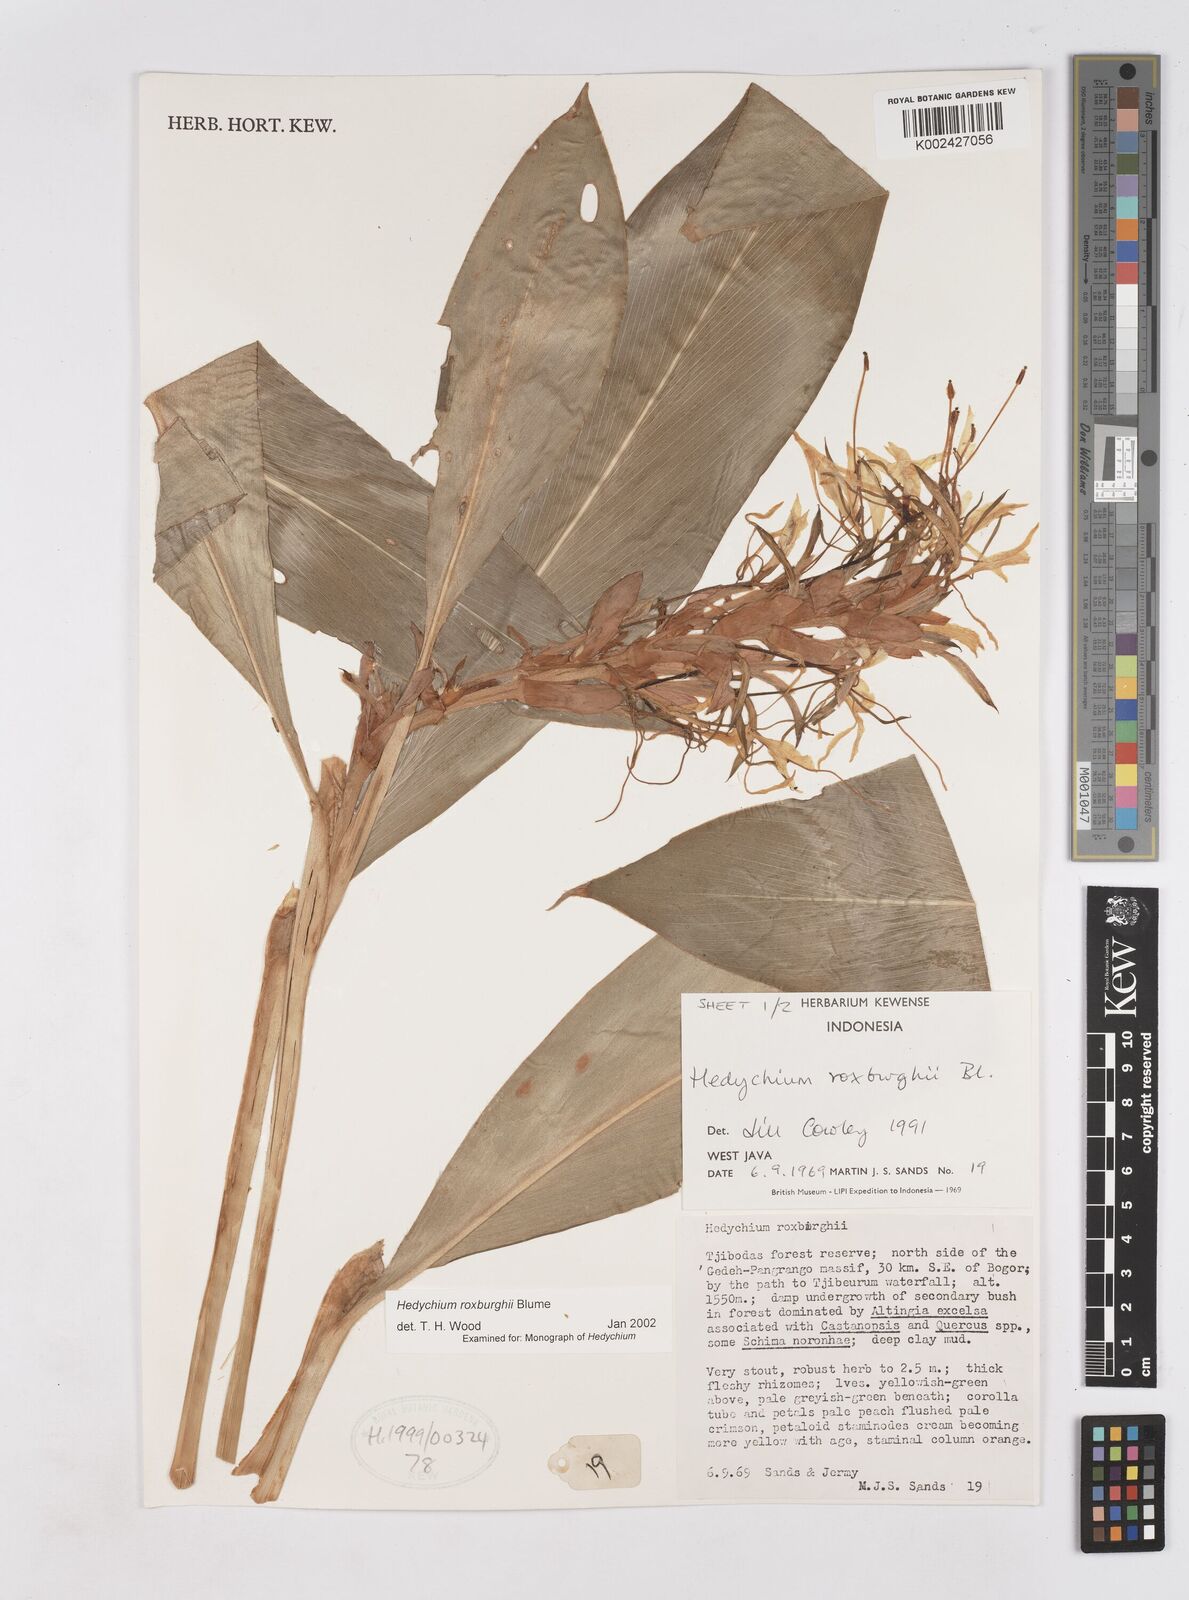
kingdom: Plantae
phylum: Tracheophyta
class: Liliopsida
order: Zingiberales
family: Zingiberaceae
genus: Hedychium
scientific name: Hedychium roxburghii
